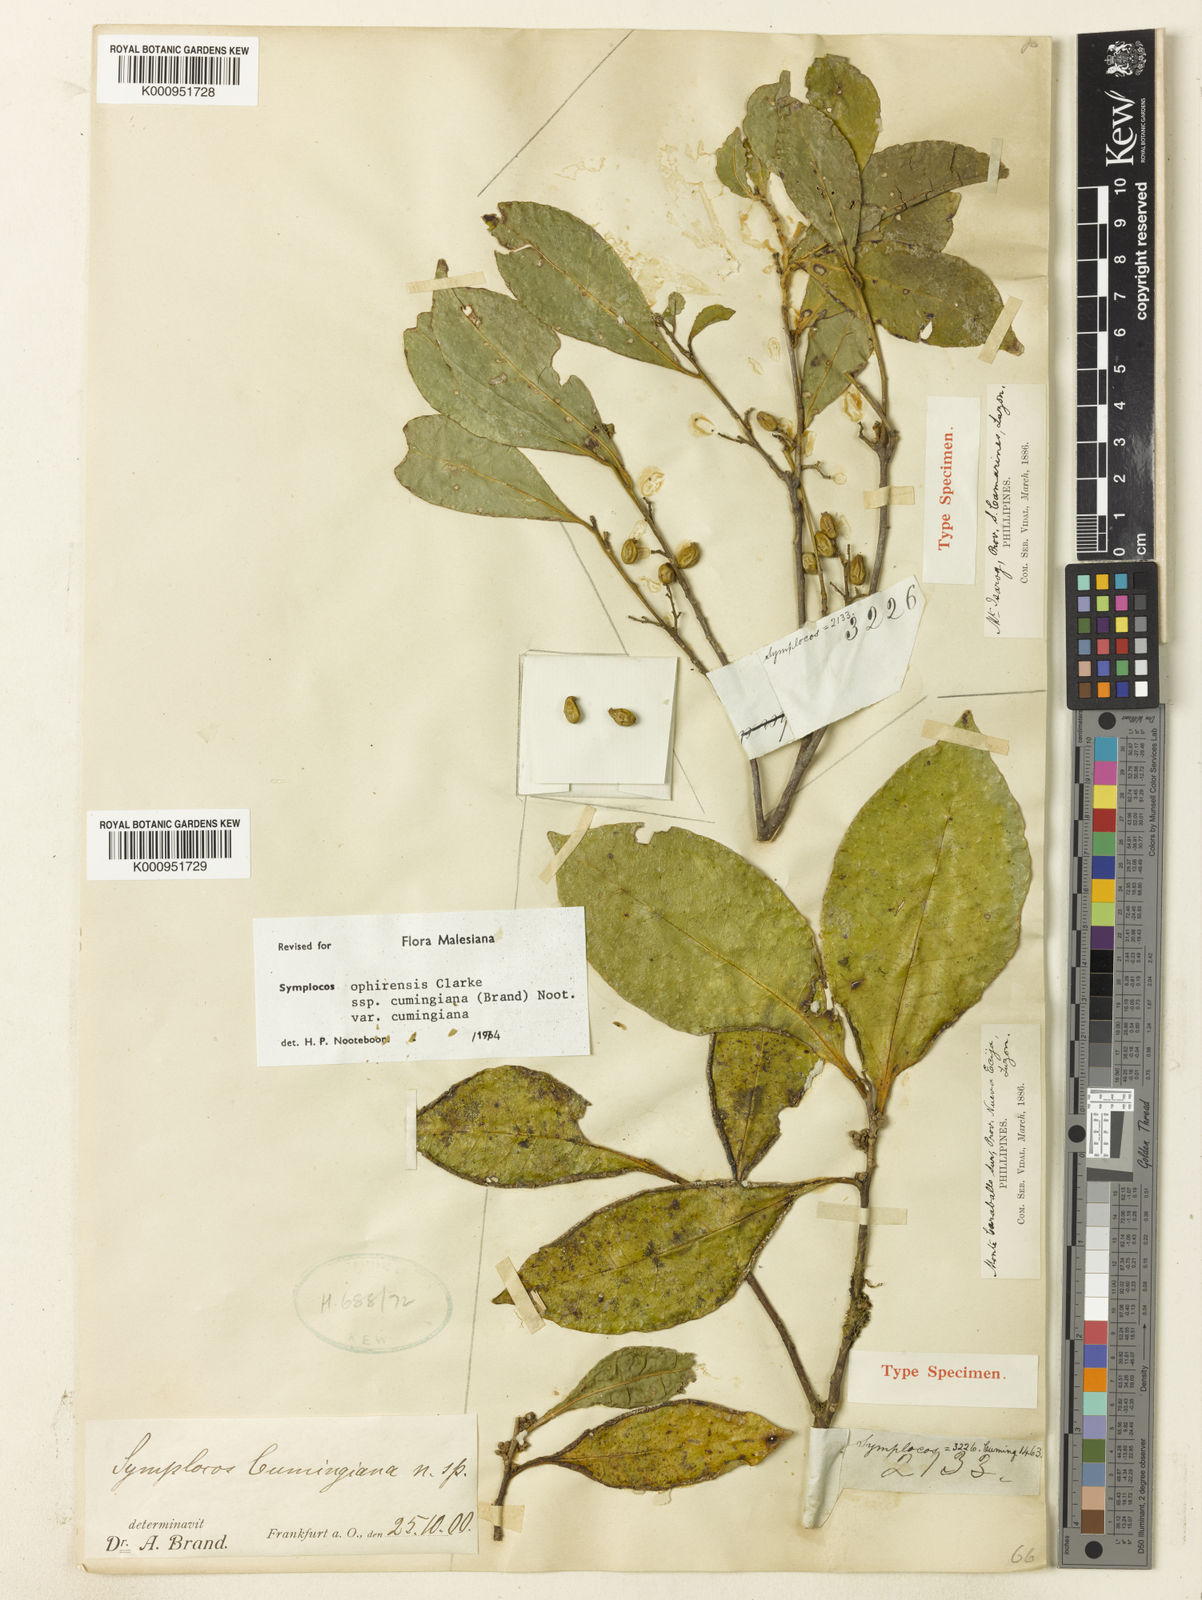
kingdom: Plantae
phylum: Tracheophyta
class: Magnoliopsida
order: Ericales
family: Symplocaceae
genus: Symplocos
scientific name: Symplocos cochinchinensis
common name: Buff hazelwood
